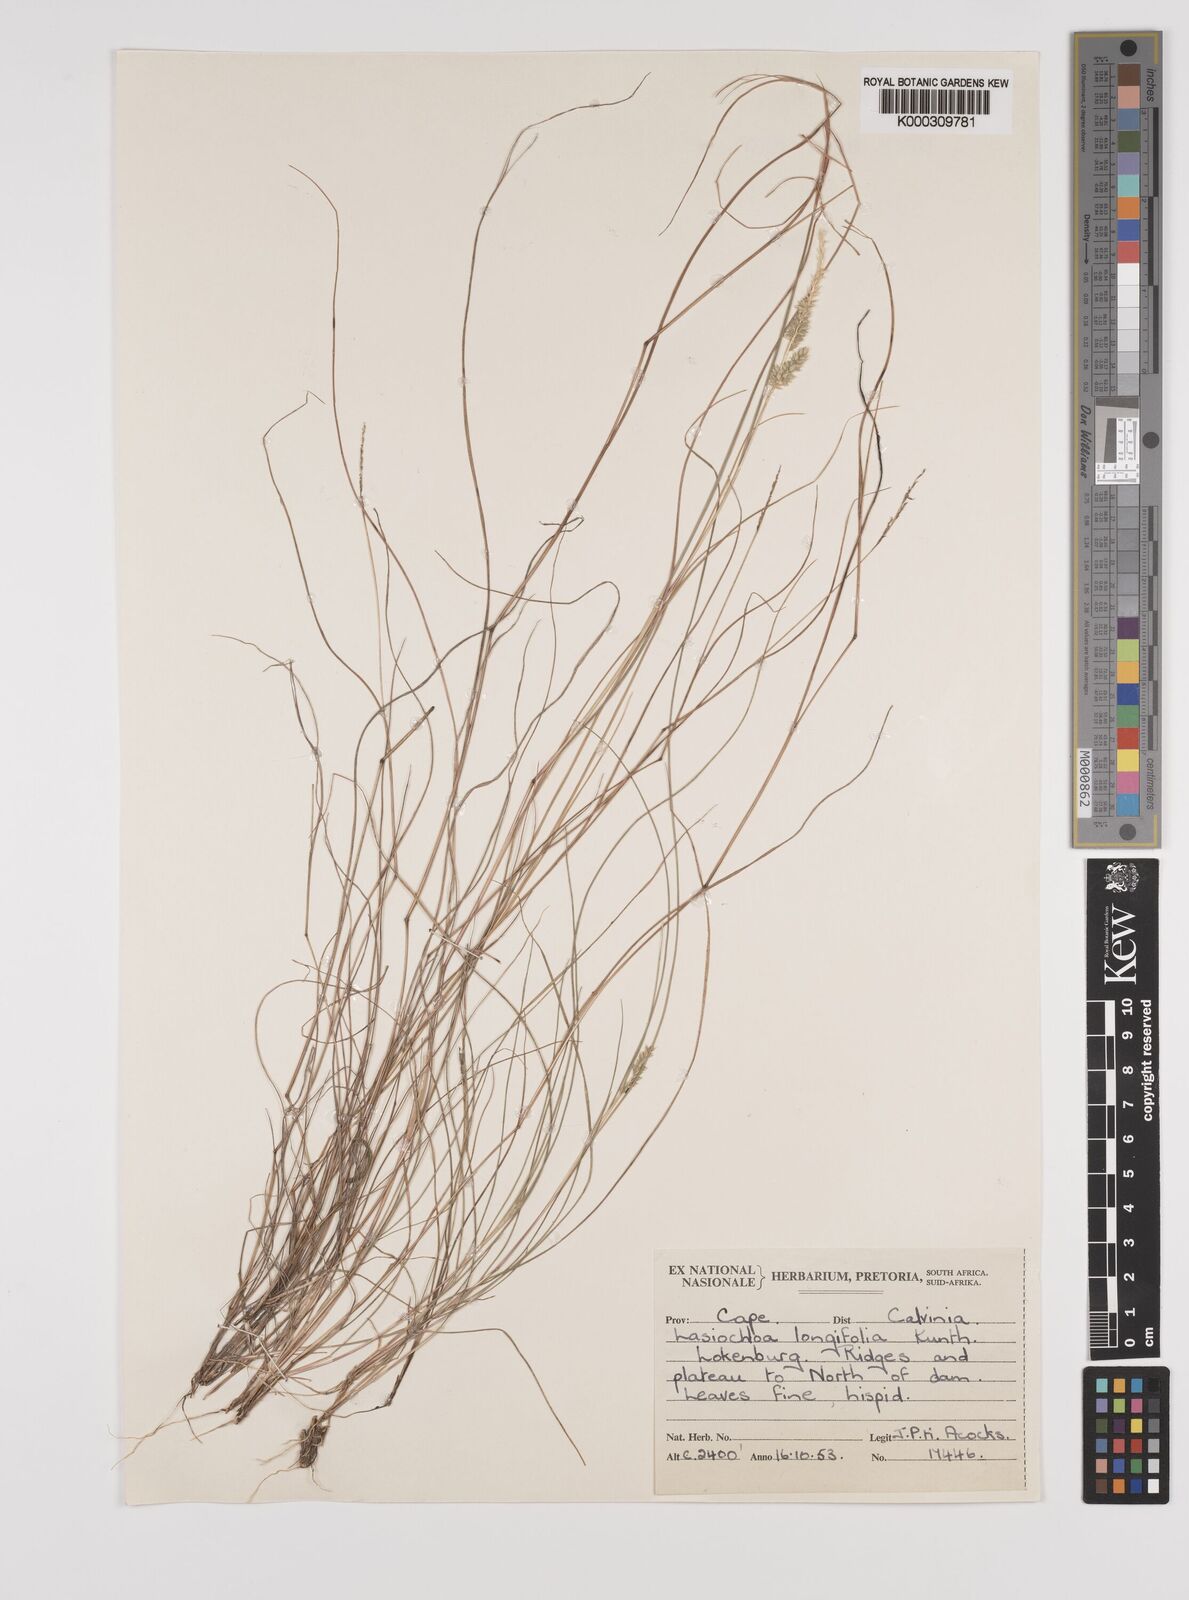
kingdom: Plantae
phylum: Tracheophyta
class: Liliopsida
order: Poales
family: Poaceae
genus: Tribolium
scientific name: Tribolium hispidum
